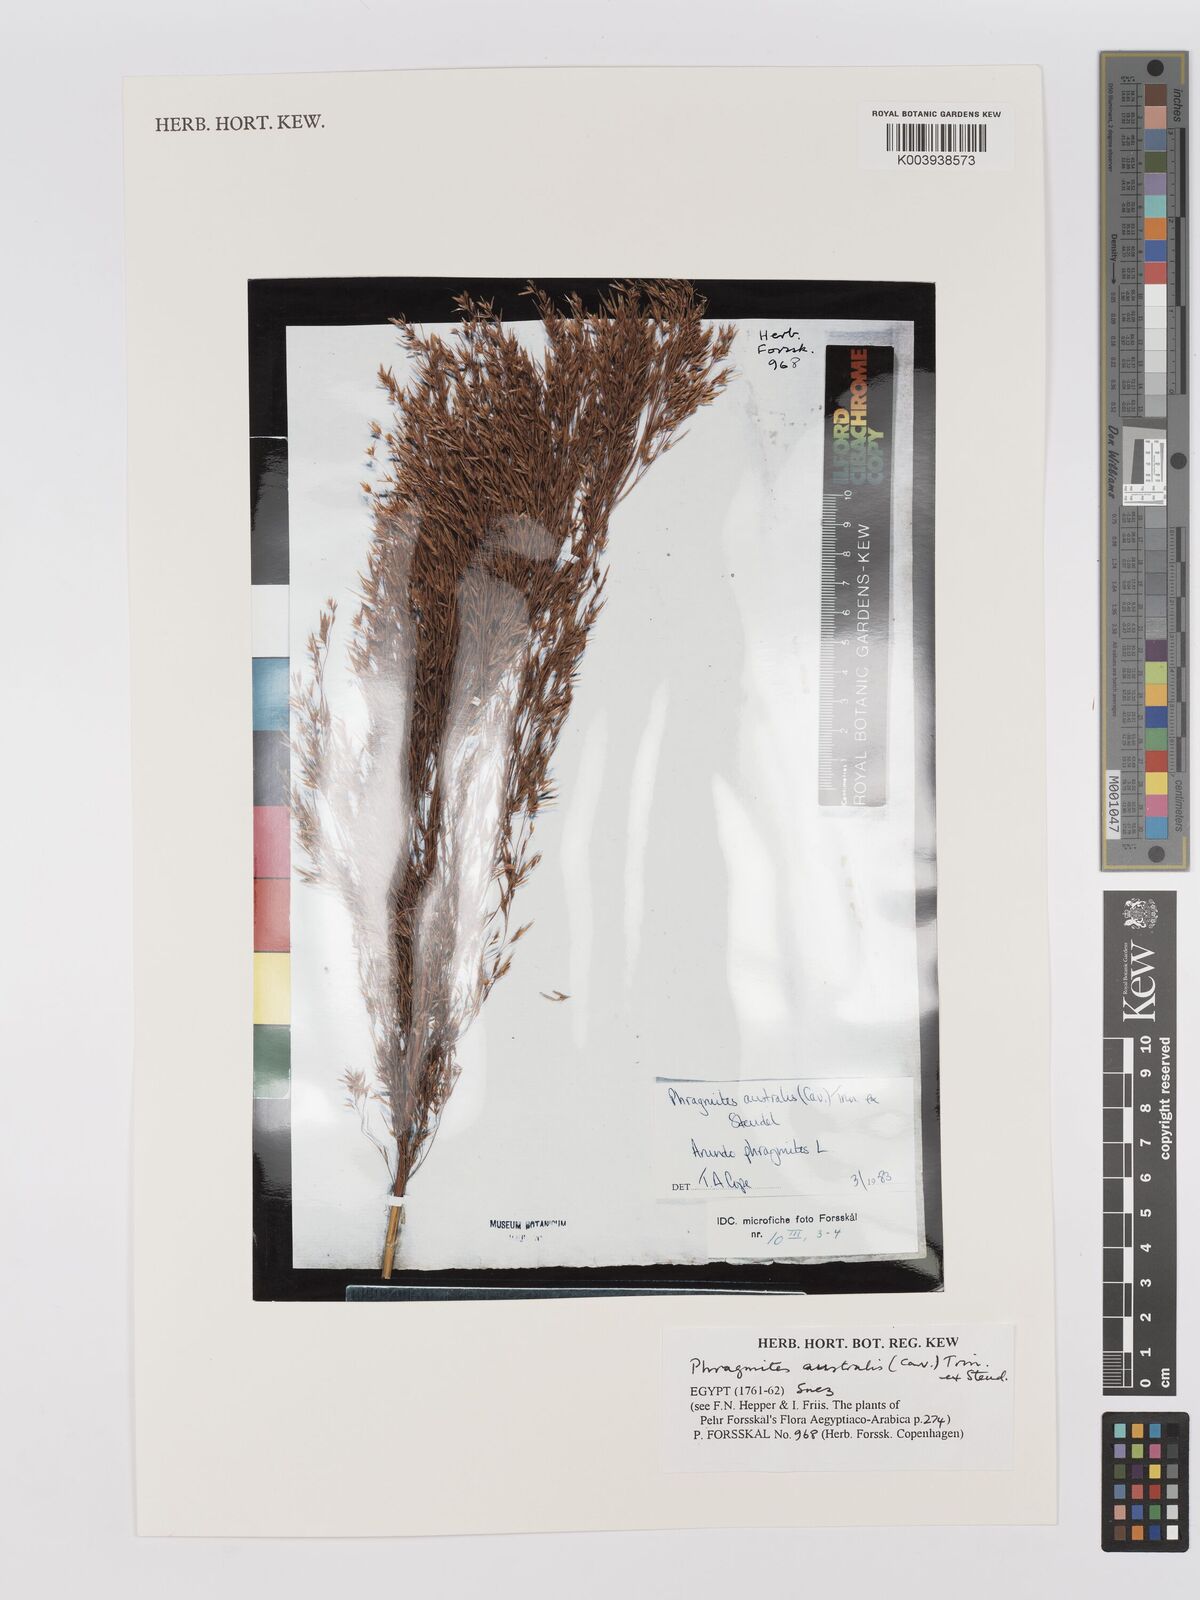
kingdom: Plantae
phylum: Tracheophyta
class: Liliopsida
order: Poales
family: Poaceae
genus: Phragmites
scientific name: Phragmites australis
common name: Common reed
